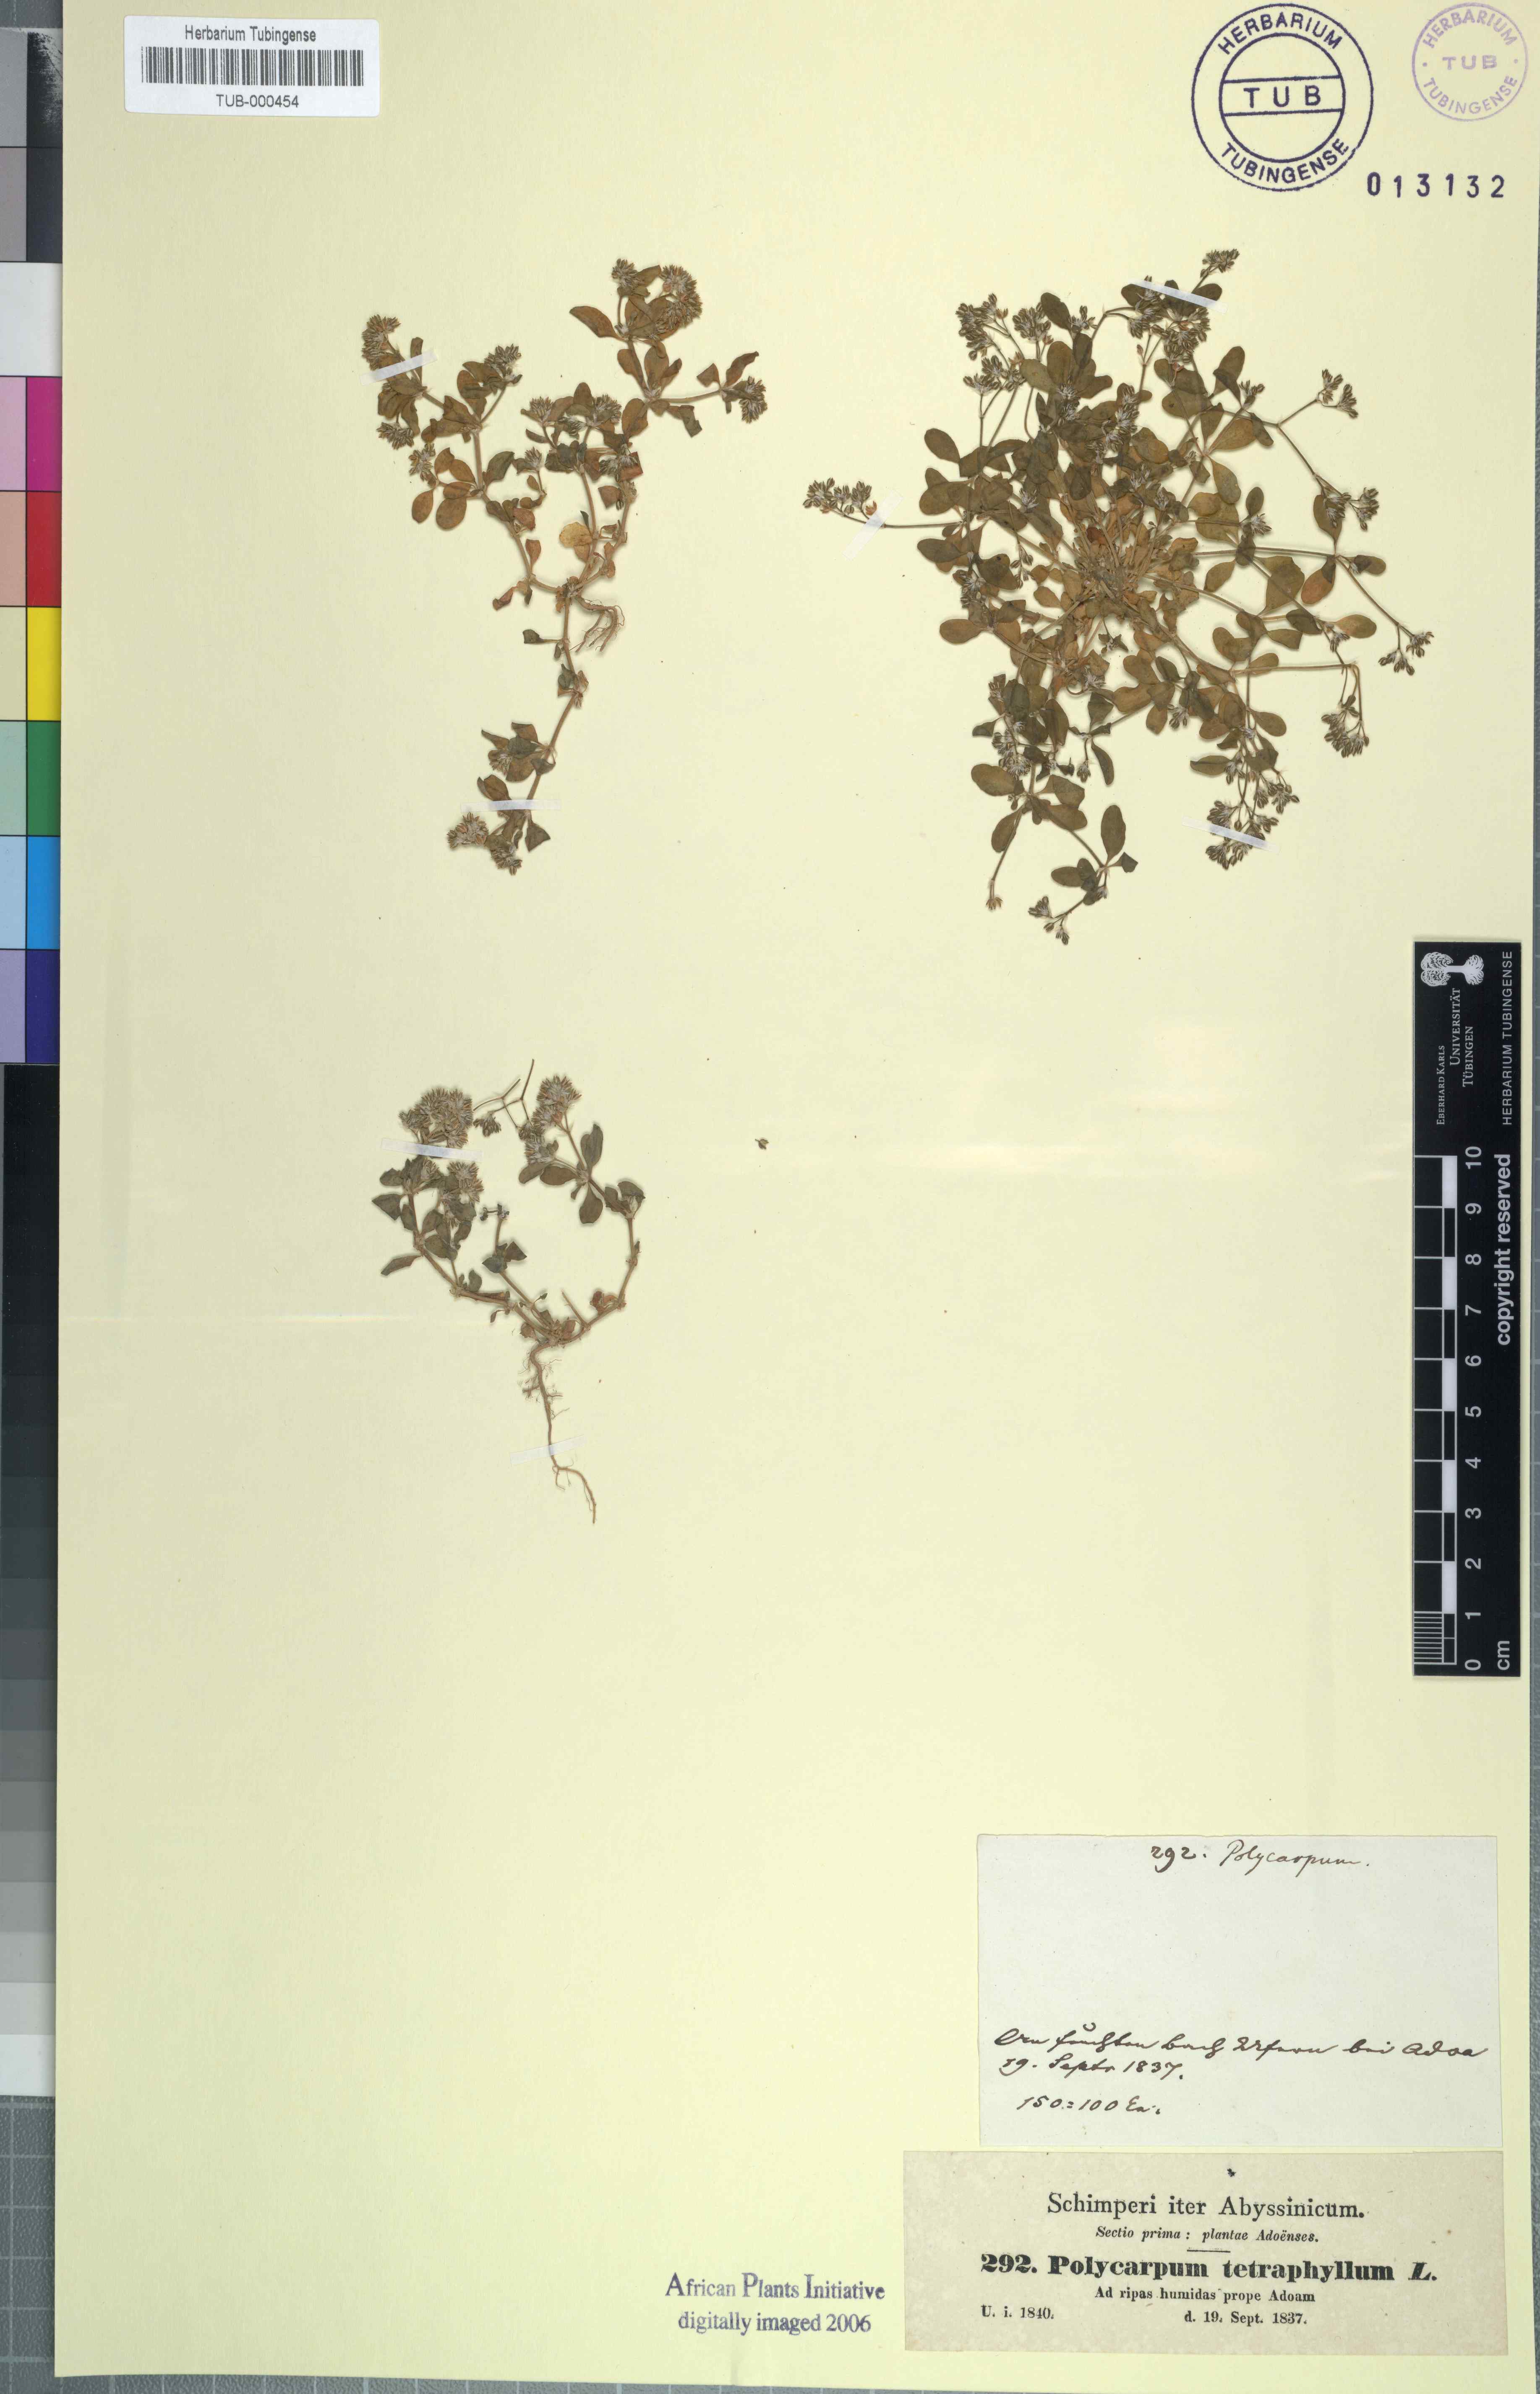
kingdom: Plantae
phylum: Tracheophyta
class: Magnoliopsida
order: Caryophyllales
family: Caryophyllaceae
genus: Polycarpon
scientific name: Polycarpon tetraphyllum
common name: Four-leaved all-seed
